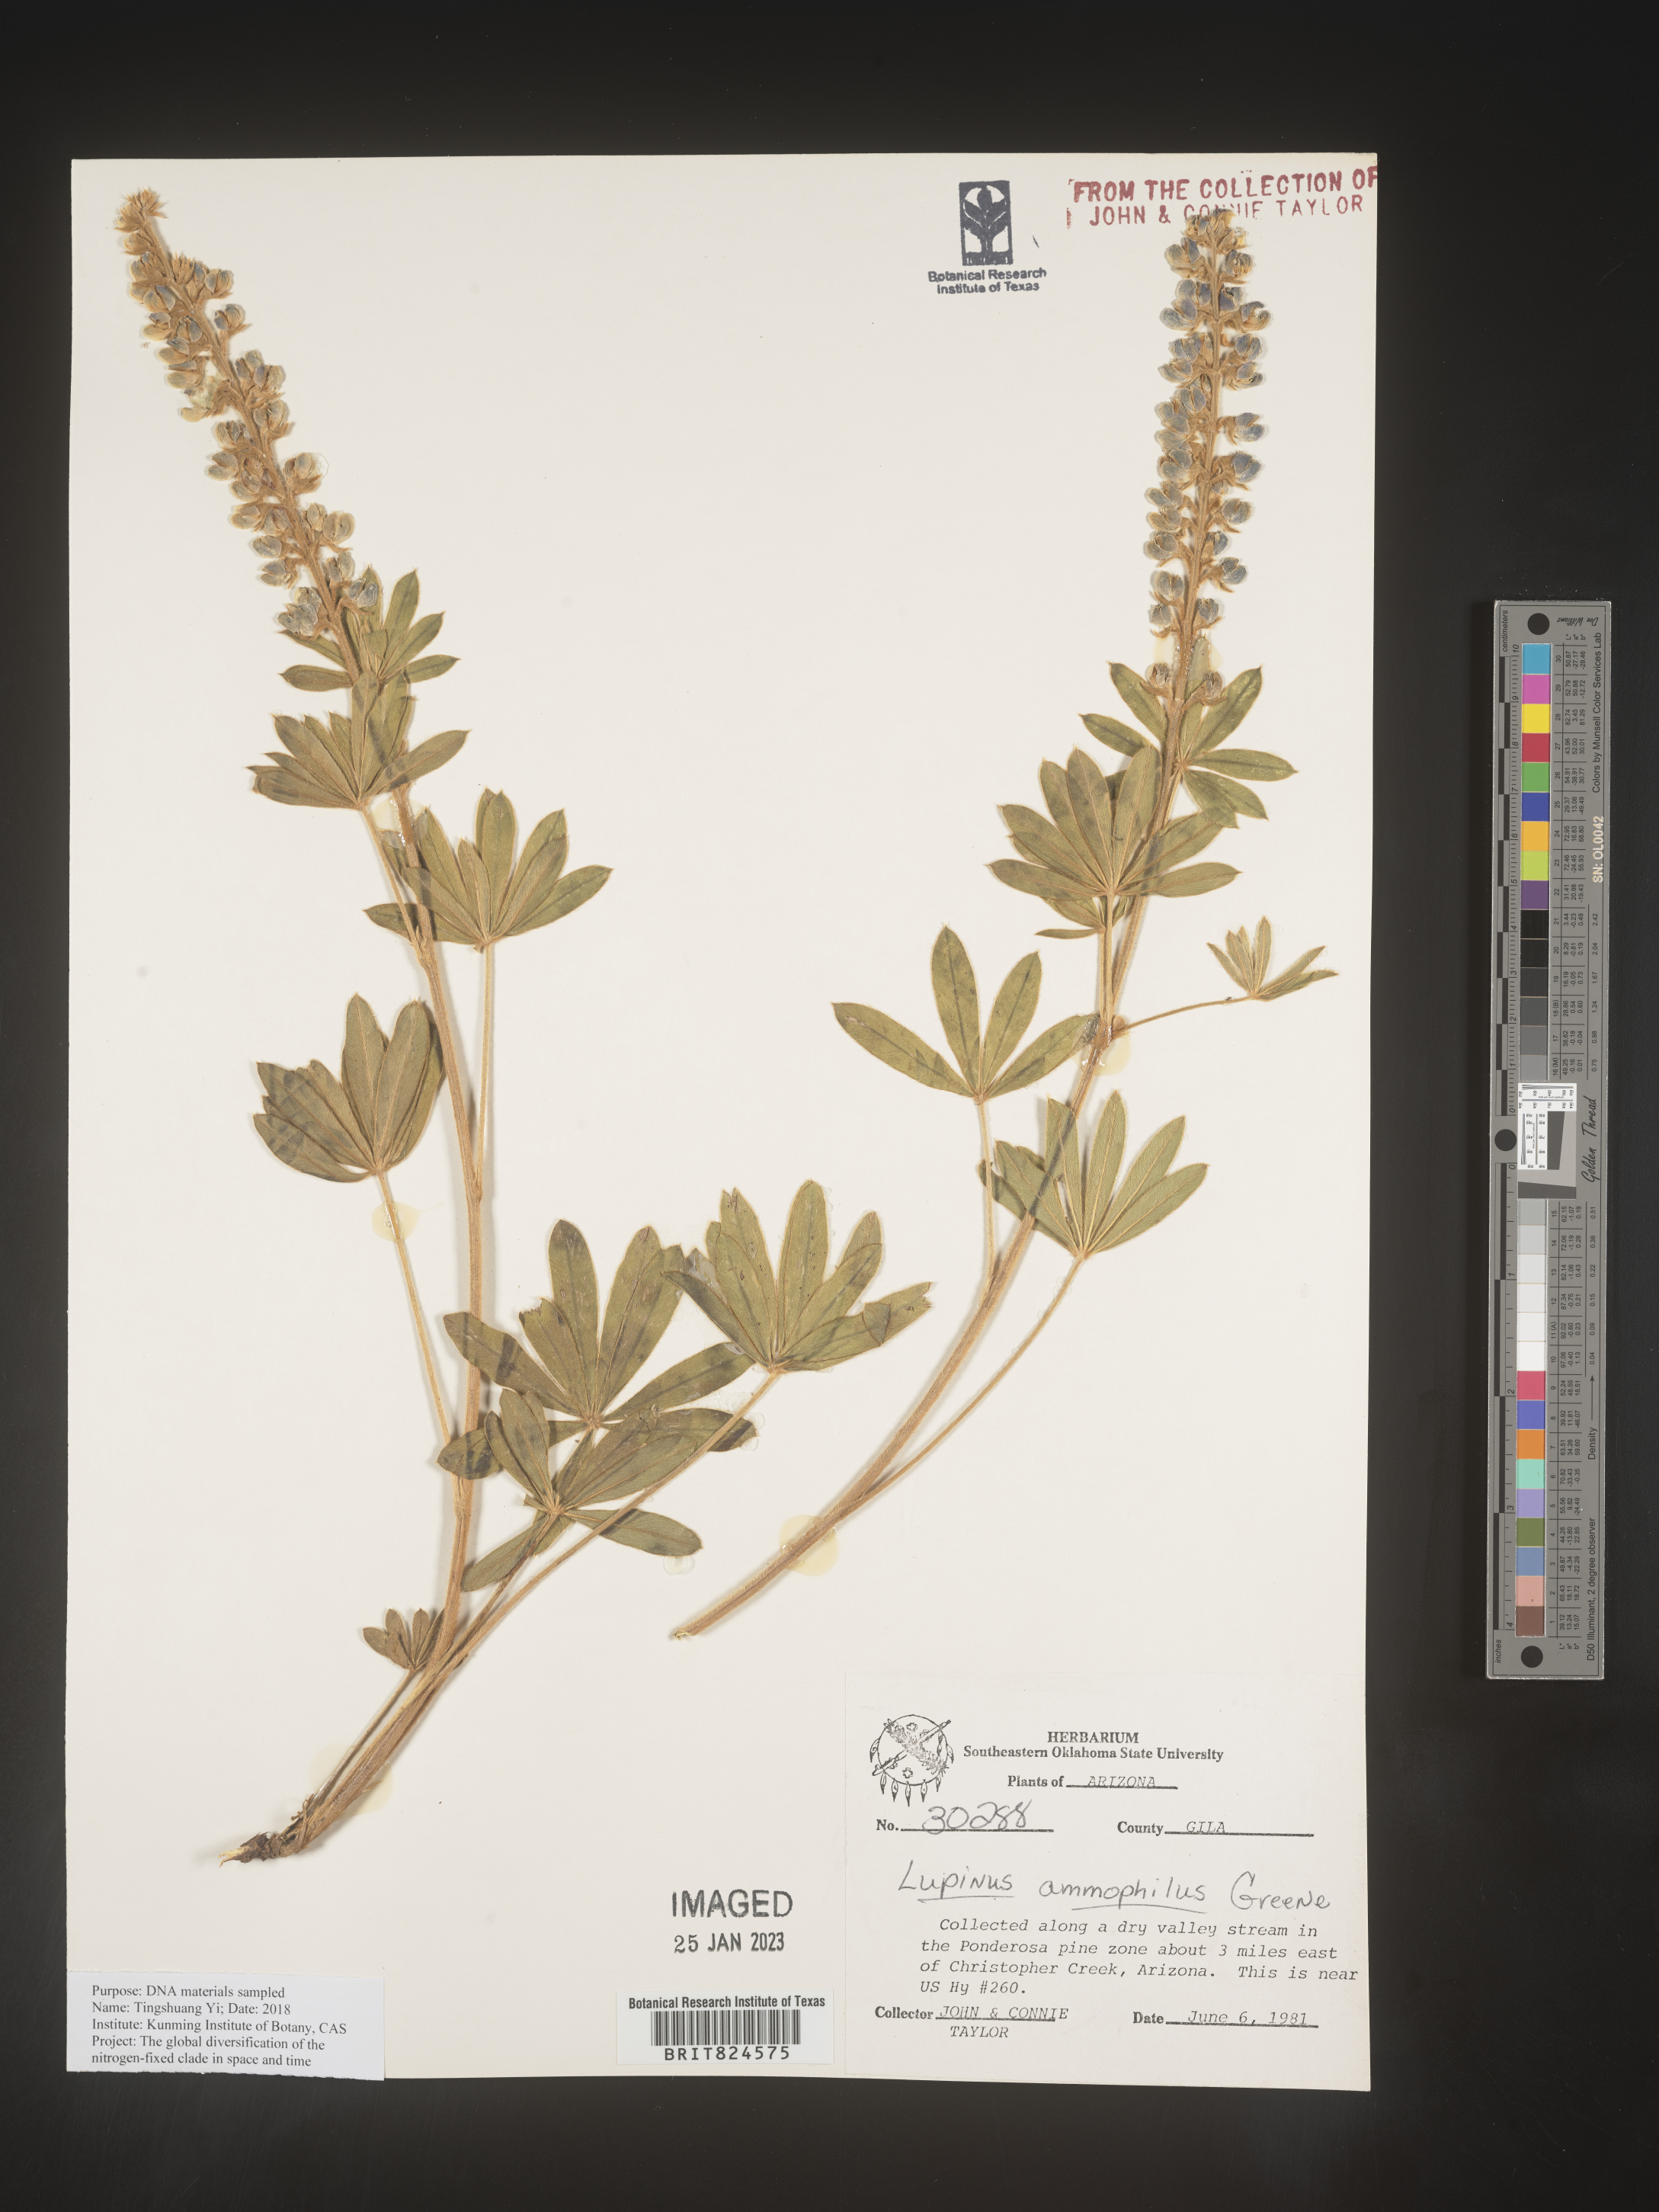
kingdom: Plantae
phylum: Tracheophyta
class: Magnoliopsida
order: Fabales
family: Fabaceae
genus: Lupinus
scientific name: Lupinus
